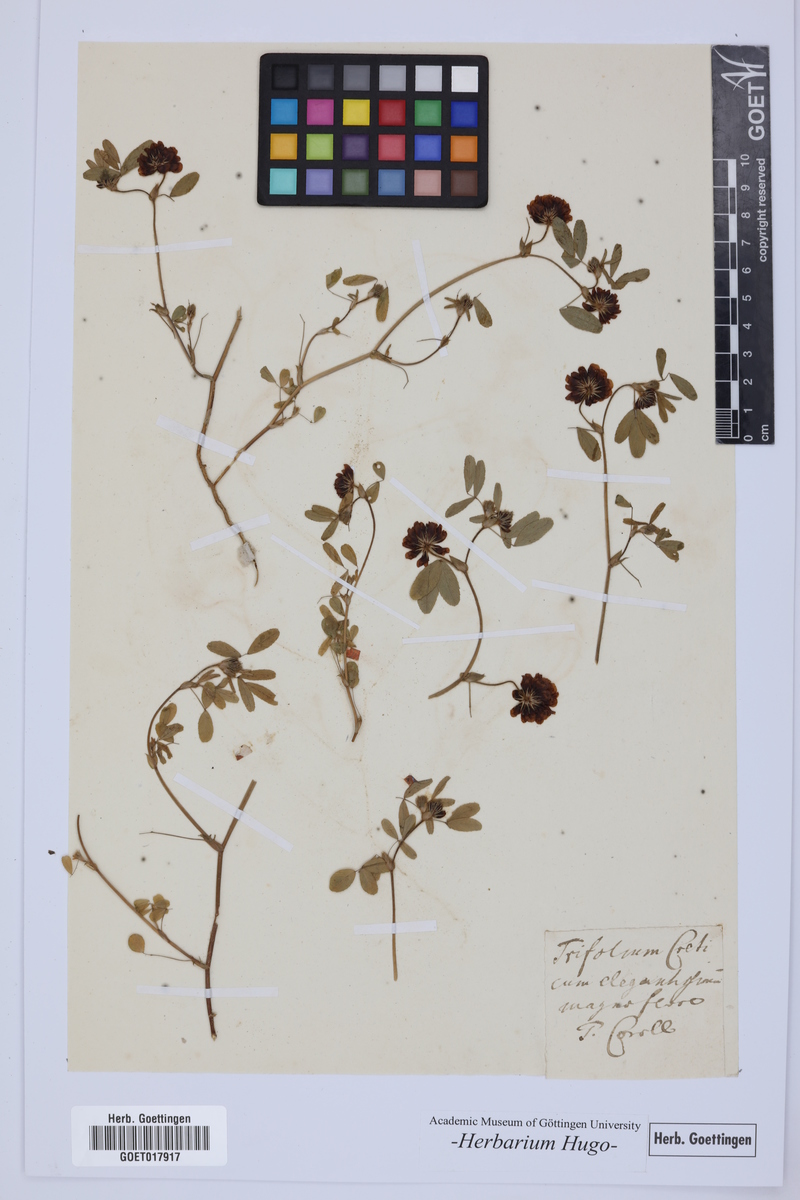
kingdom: Plantae
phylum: Tracheophyta
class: Magnoliopsida
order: Fabales
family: Fabaceae
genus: Trifolium
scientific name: Trifolium
